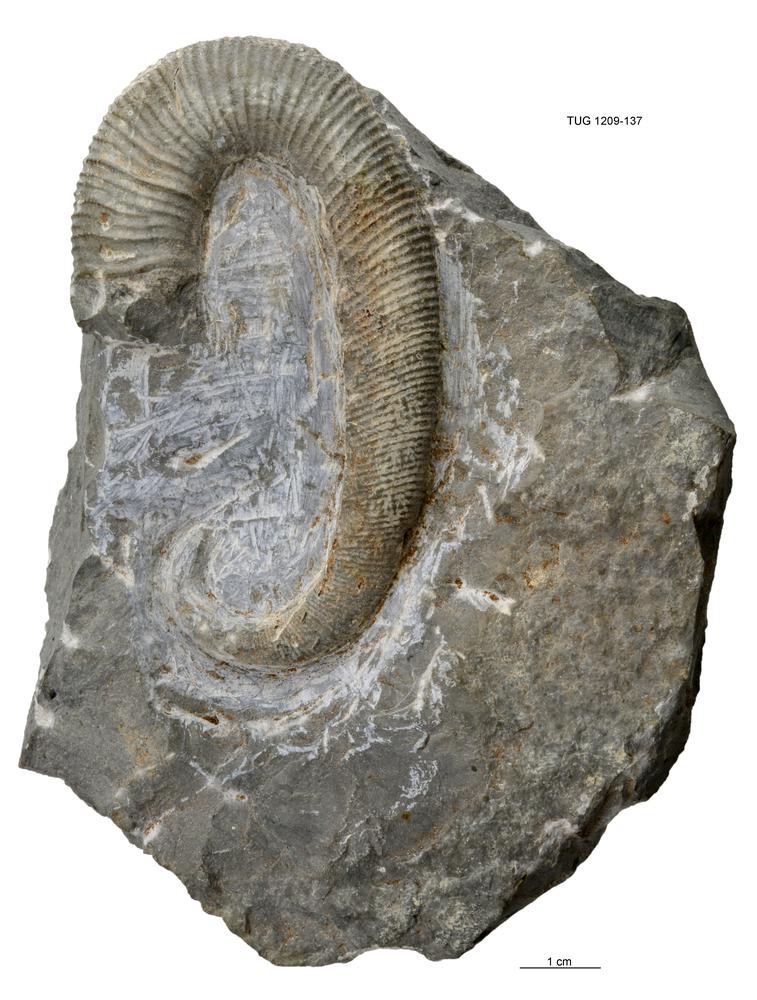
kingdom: Animalia
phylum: Mollusca
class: Cephalopoda
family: Scaphitidae
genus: Scaphites
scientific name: Scaphites
